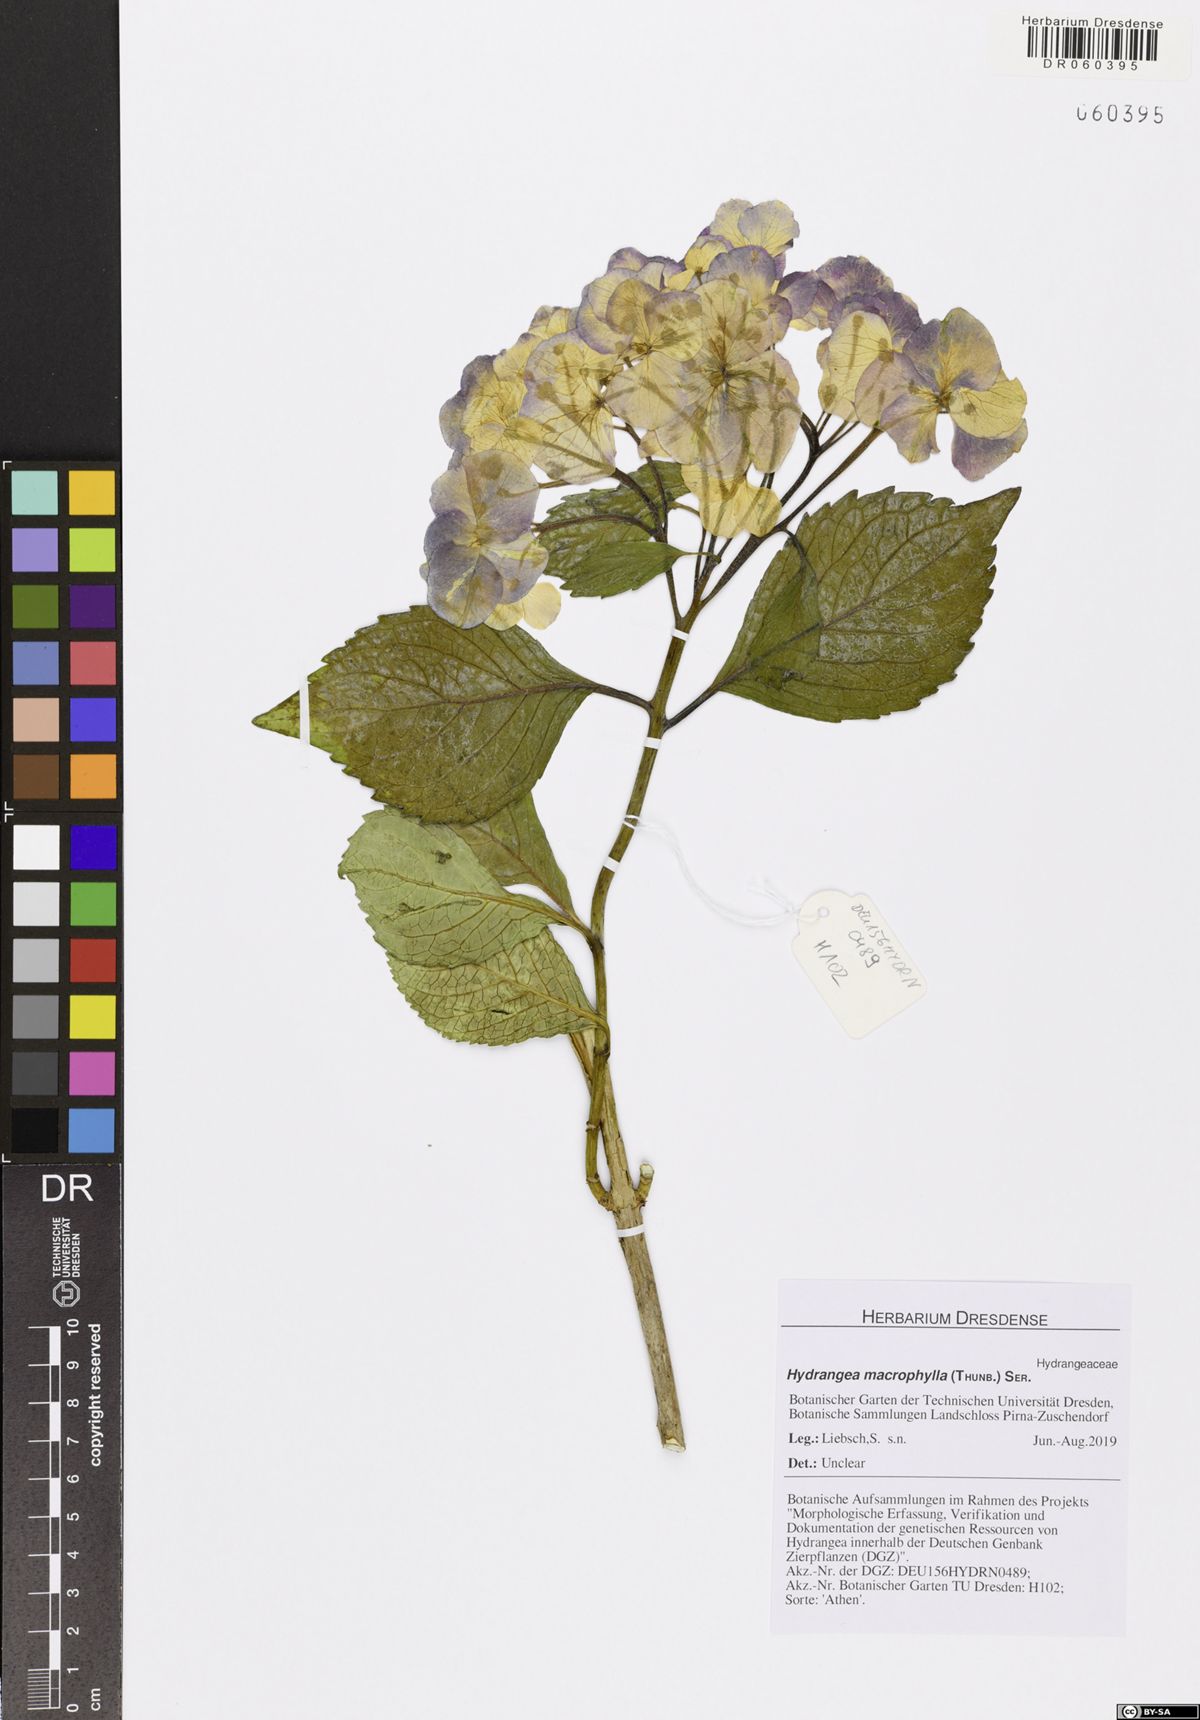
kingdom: Plantae
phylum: Tracheophyta
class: Magnoliopsida
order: Cornales
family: Hydrangeaceae
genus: Hydrangea
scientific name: Hydrangea macrophylla
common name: Hydrangea
